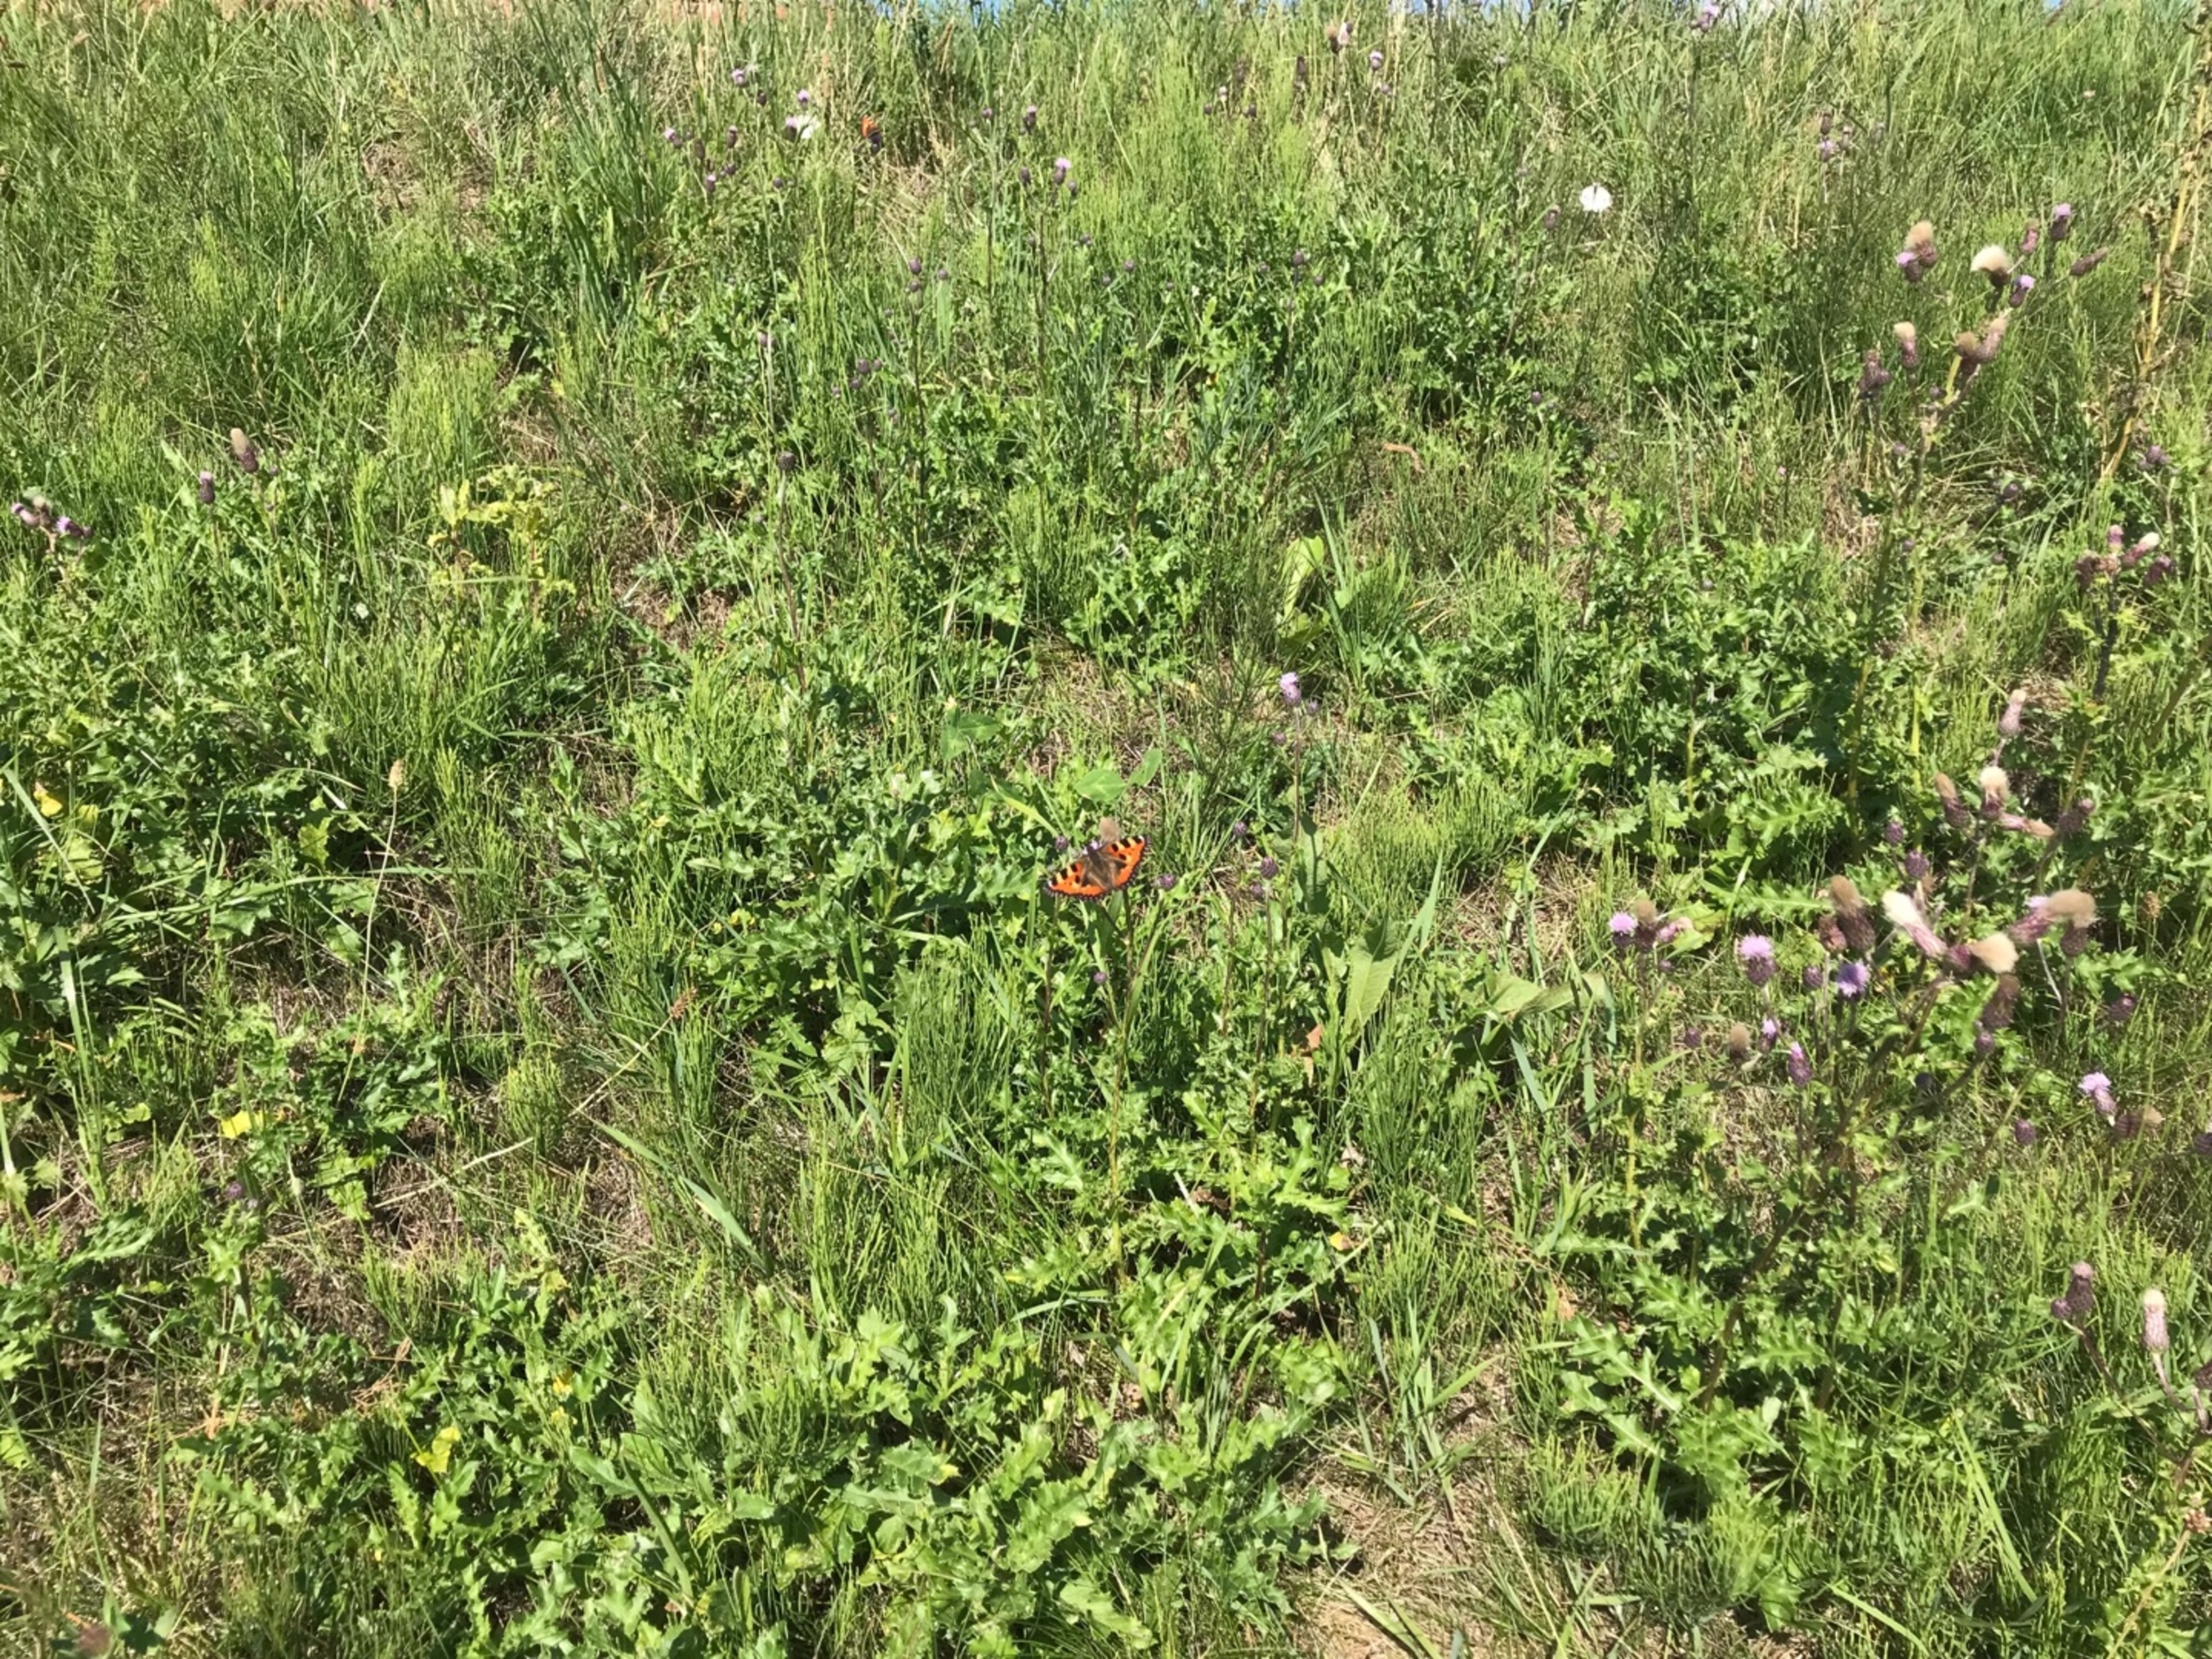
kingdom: Animalia
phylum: Arthropoda
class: Insecta
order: Lepidoptera
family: Nymphalidae
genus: Aglais
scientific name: Aglais urticae
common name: Nældens takvinge
